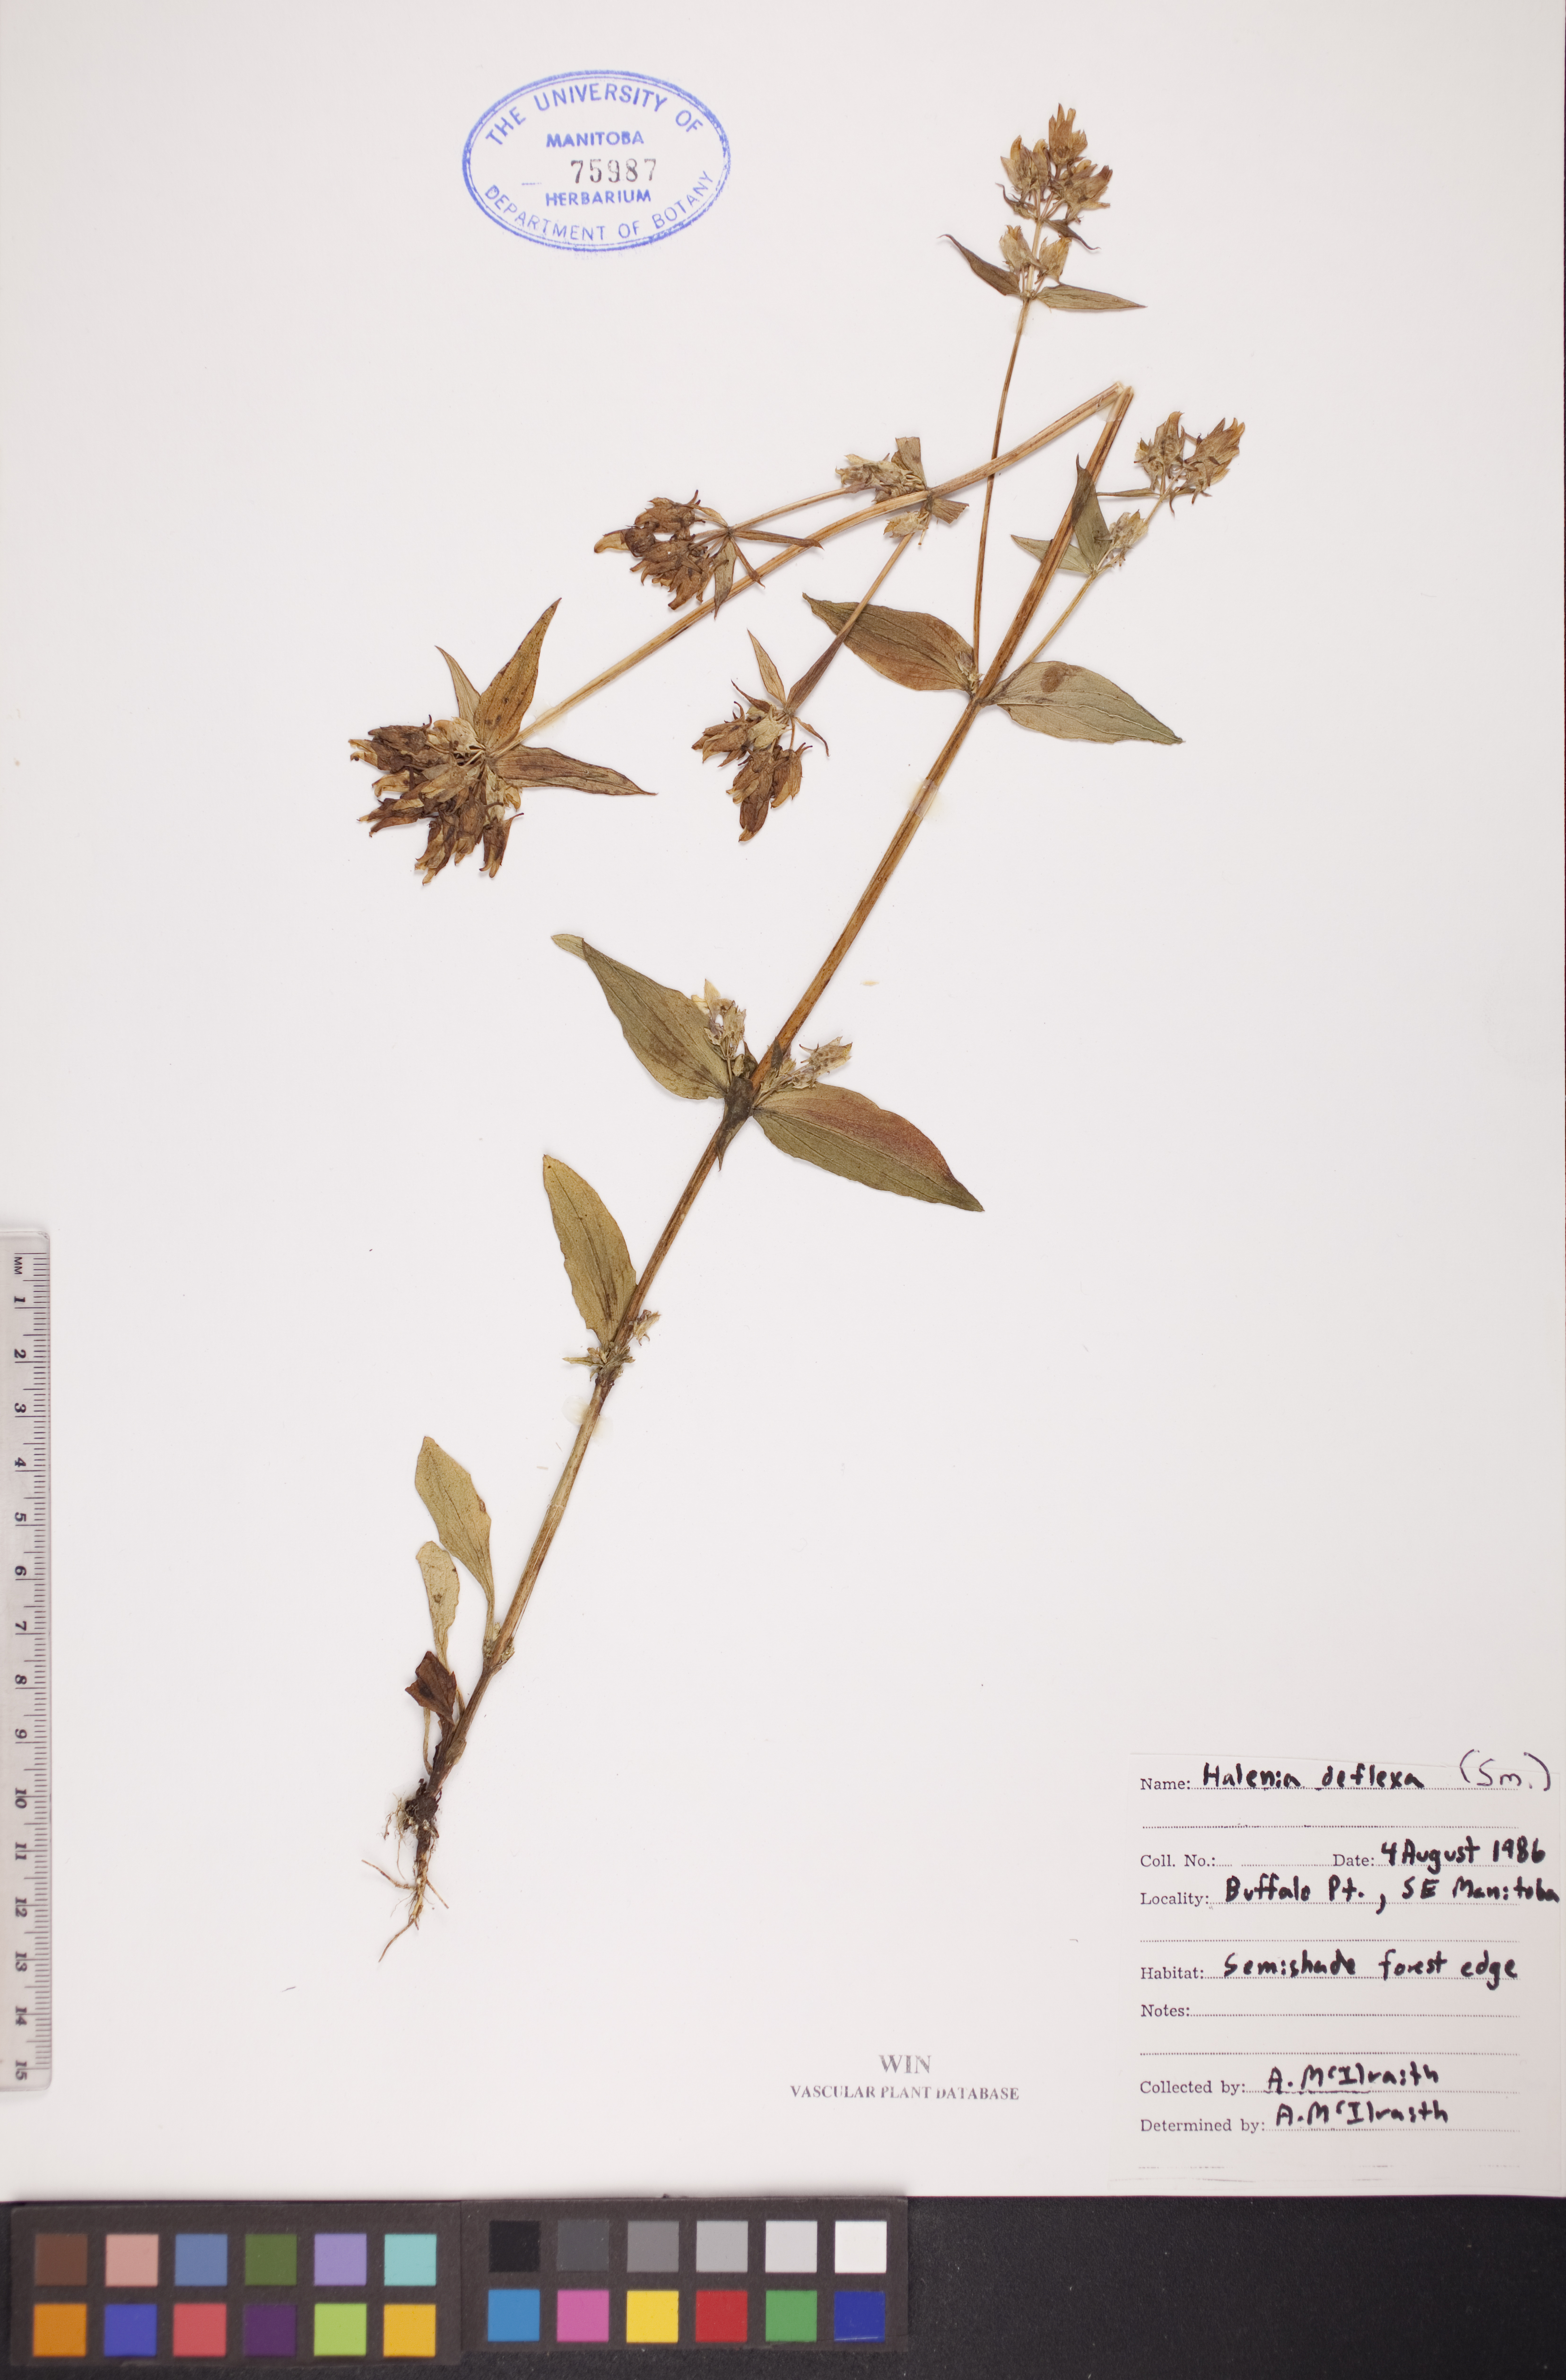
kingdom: Plantae
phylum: Tracheophyta
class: Magnoliopsida
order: Gentianales
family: Gentianaceae
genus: Halenia
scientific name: Halenia deflexa
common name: American spurred gentian
